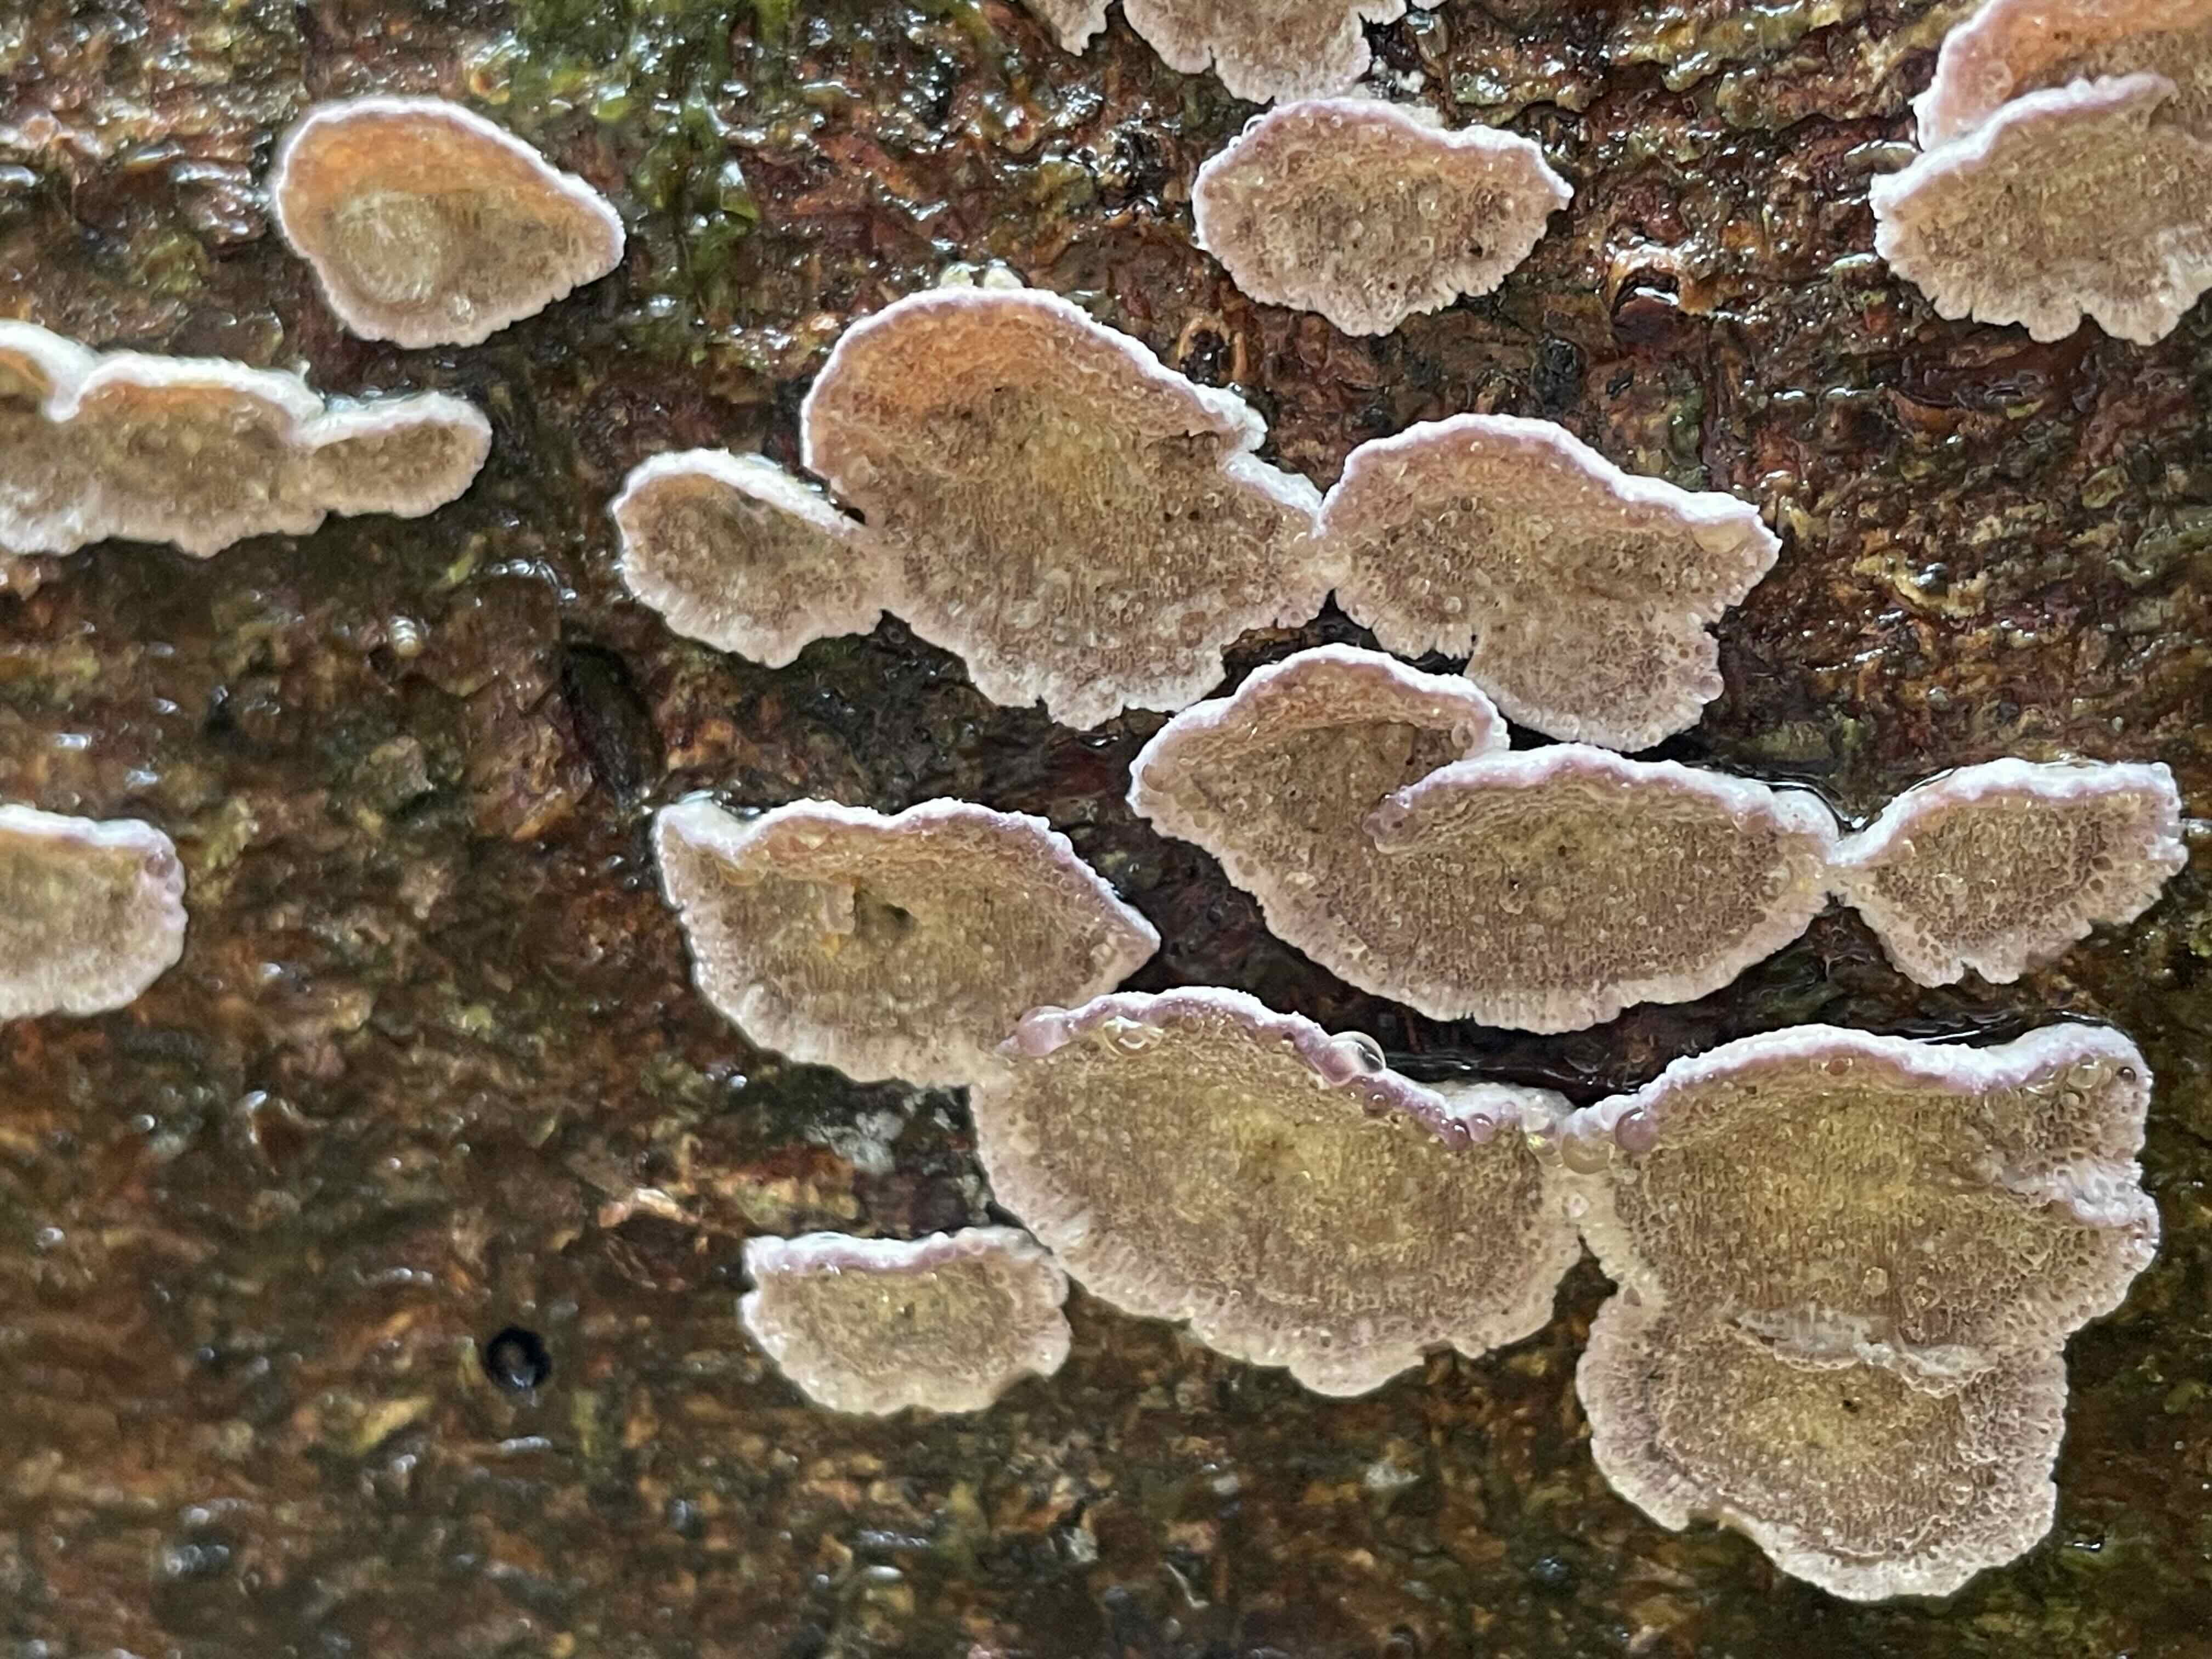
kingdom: Fungi
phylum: Basidiomycota
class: Agaricomycetes
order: Hymenochaetales
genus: Trichaptum
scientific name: Trichaptum abietinum
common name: almindelig violporesvamp
